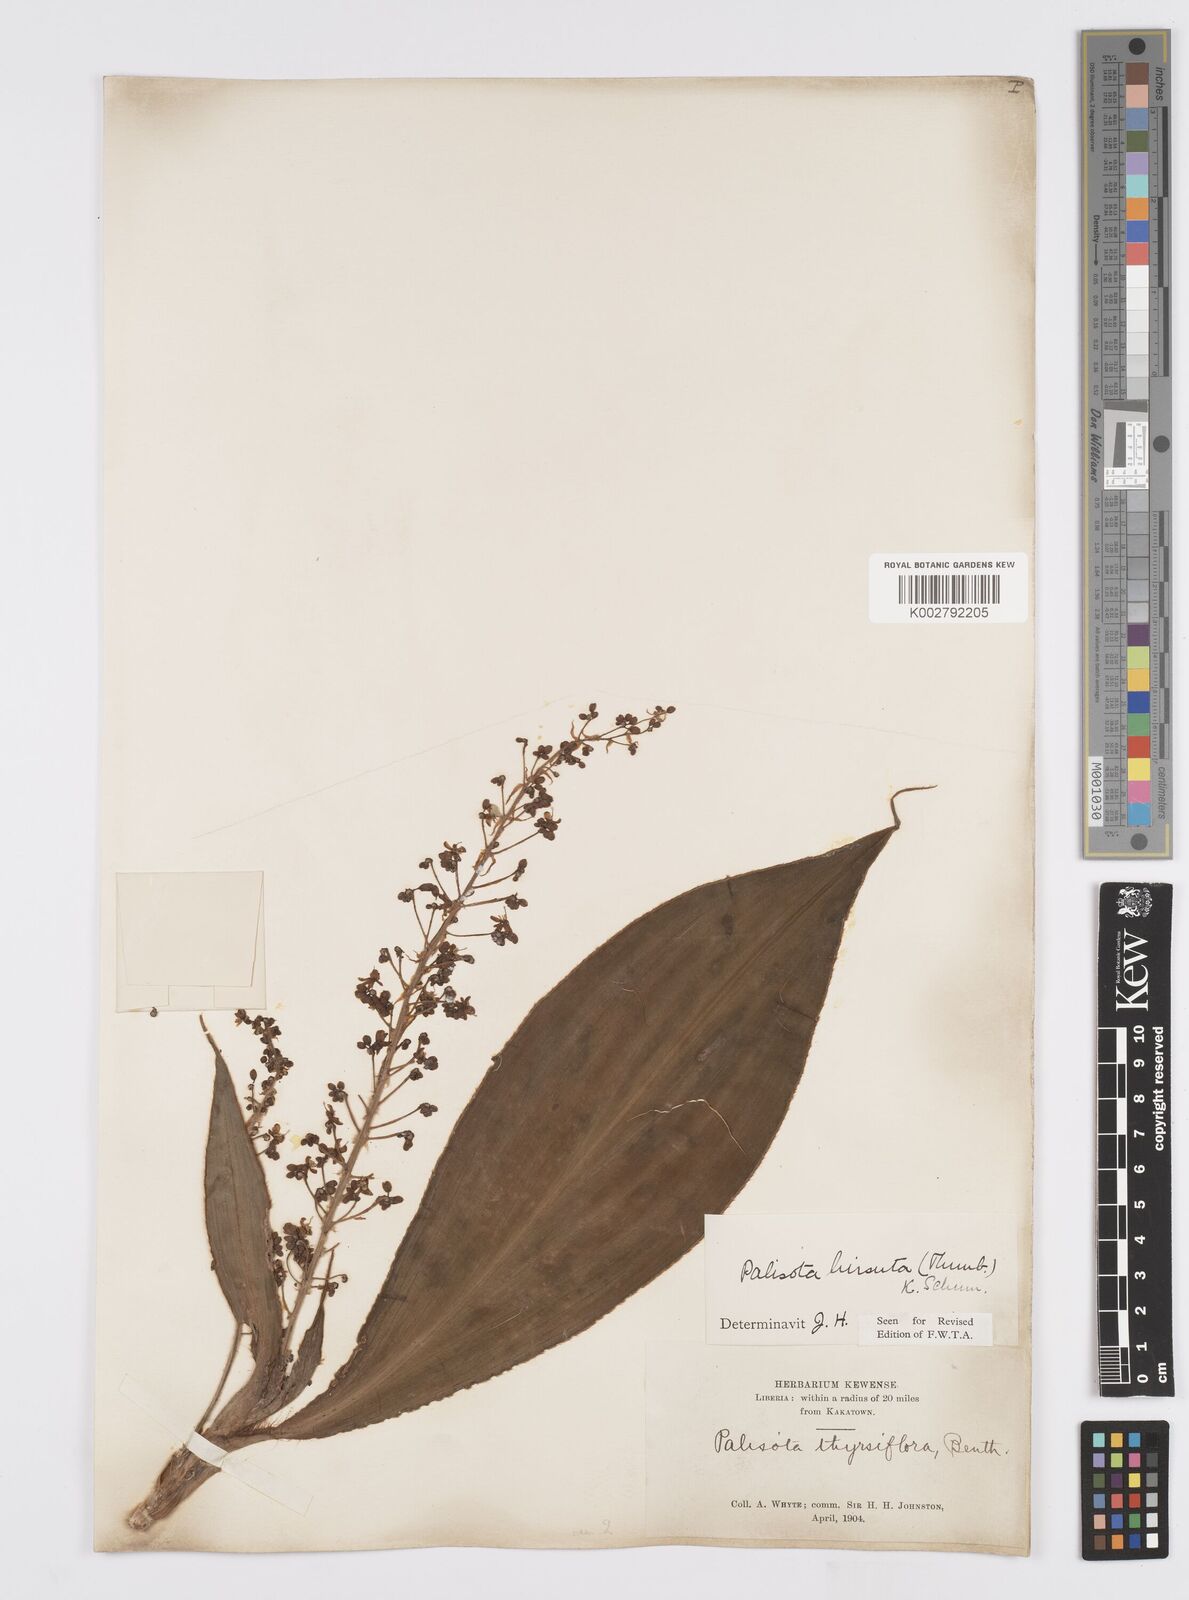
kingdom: Plantae
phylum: Tracheophyta
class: Liliopsida
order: Commelinales
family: Commelinaceae
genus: Palisota
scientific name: Palisota hirsuta
